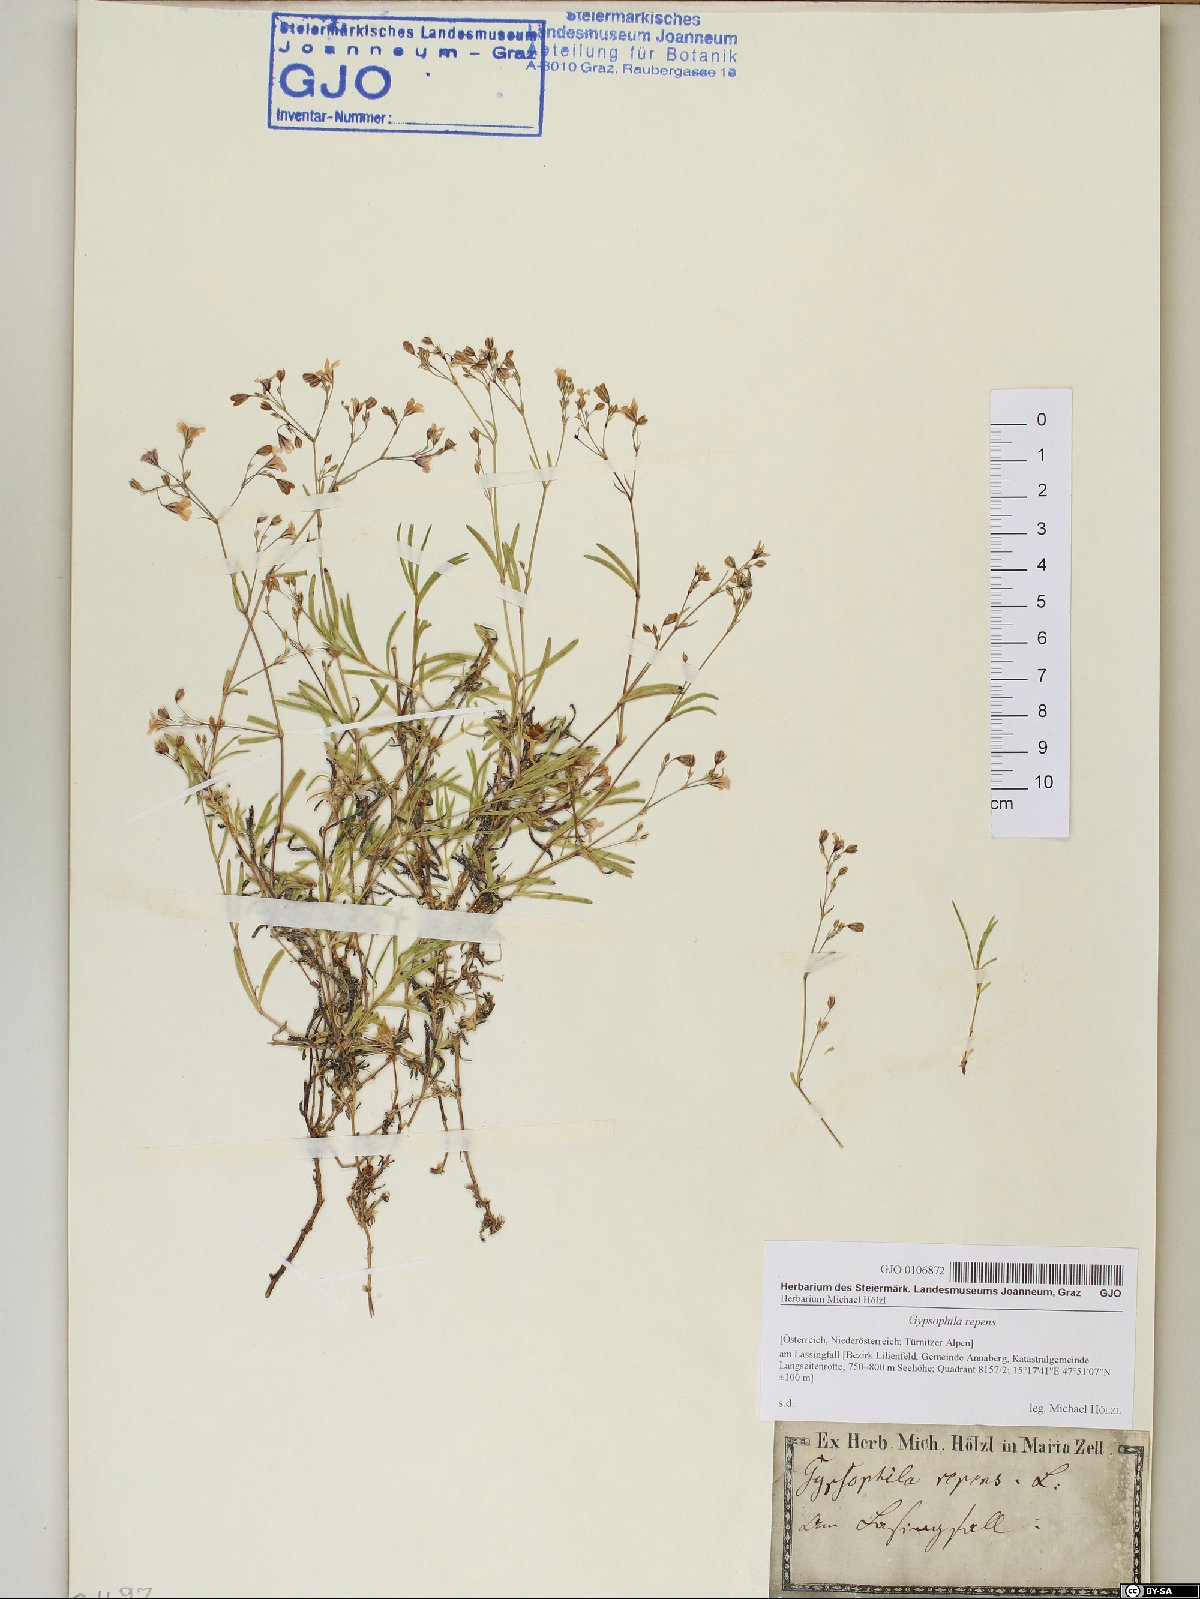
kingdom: Plantae
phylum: Tracheophyta
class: Magnoliopsida
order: Caryophyllales
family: Caryophyllaceae
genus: Gypsophila
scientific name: Gypsophila repens
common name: Creeping baby's-breath
